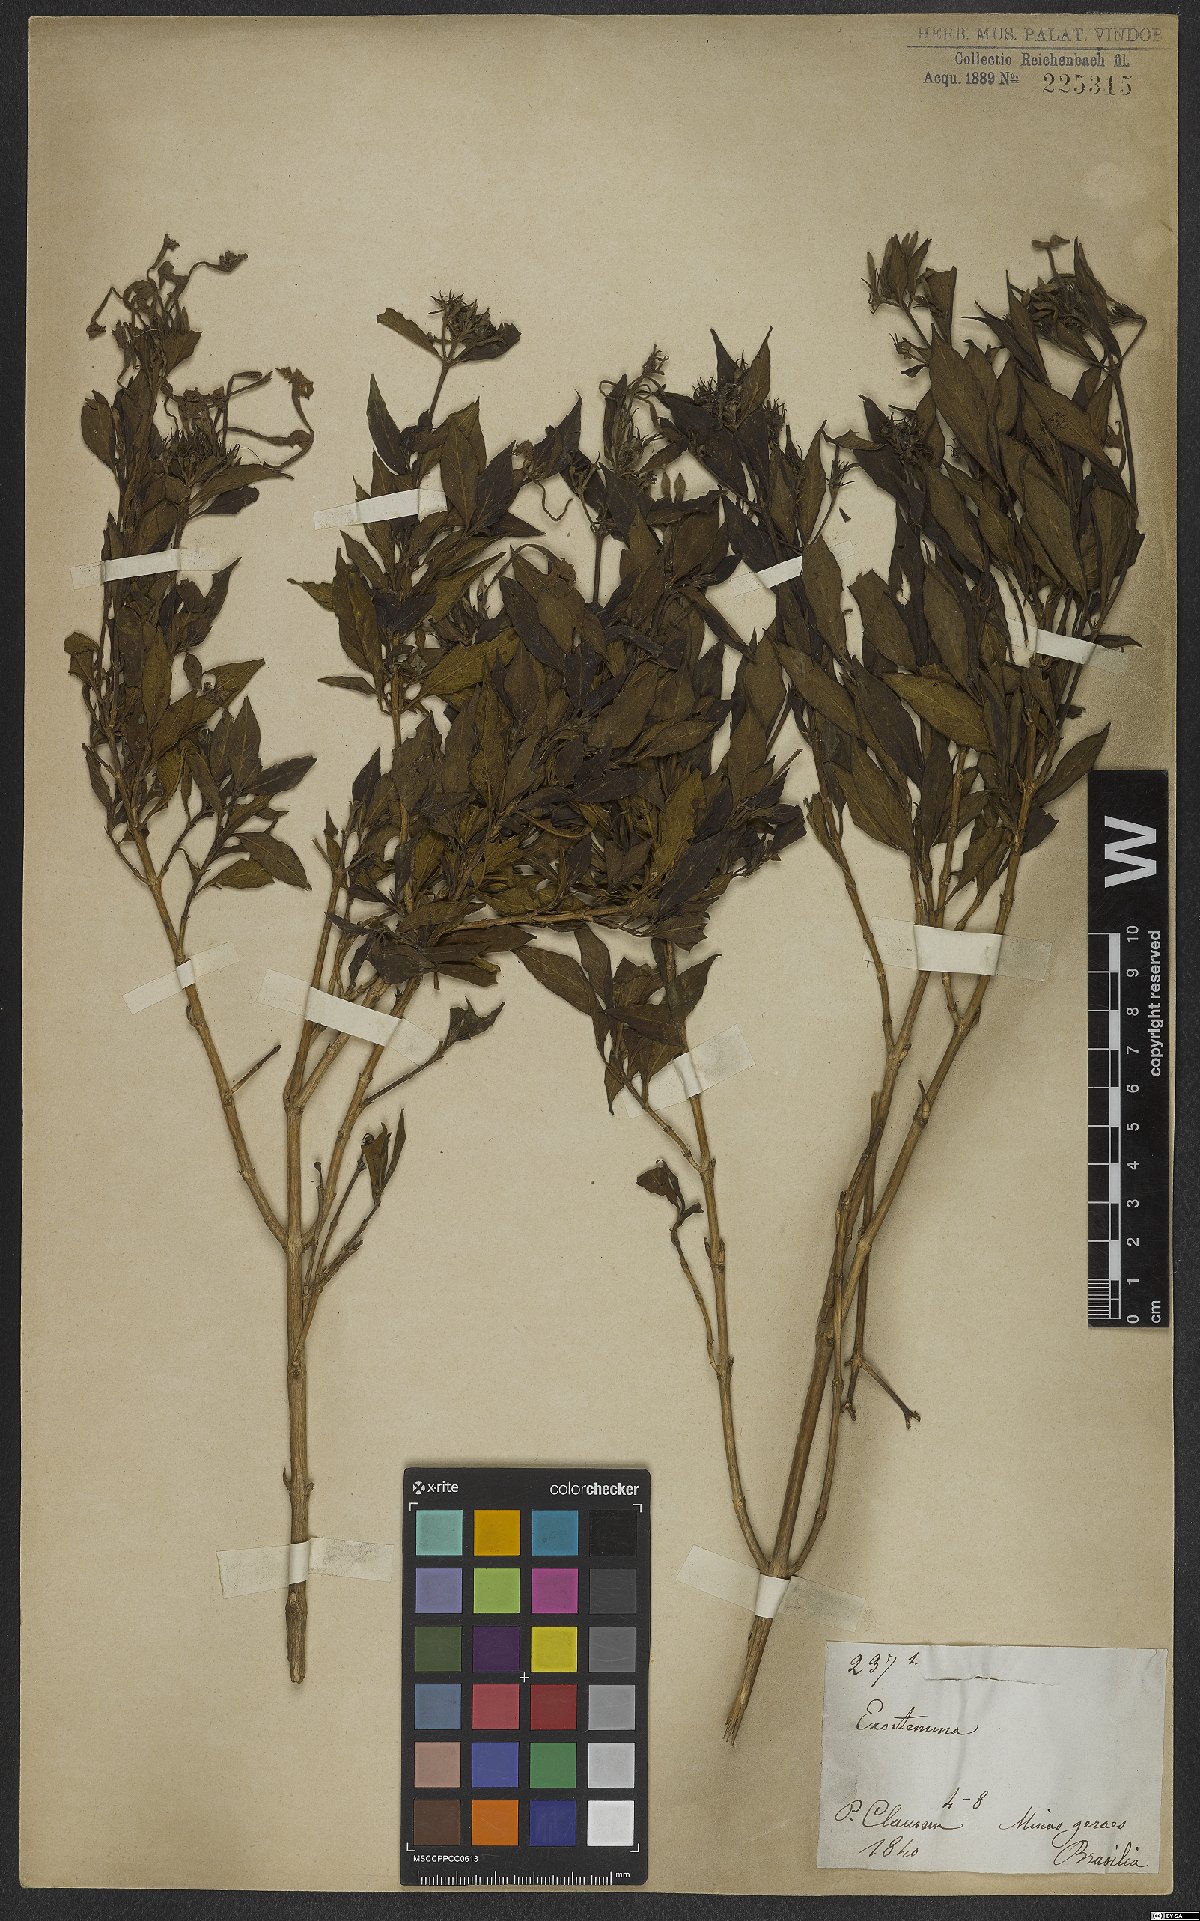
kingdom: Plantae
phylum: Tracheophyta
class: Magnoliopsida
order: Gentianales
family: Rubiaceae
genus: Exostema
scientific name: Exostema
